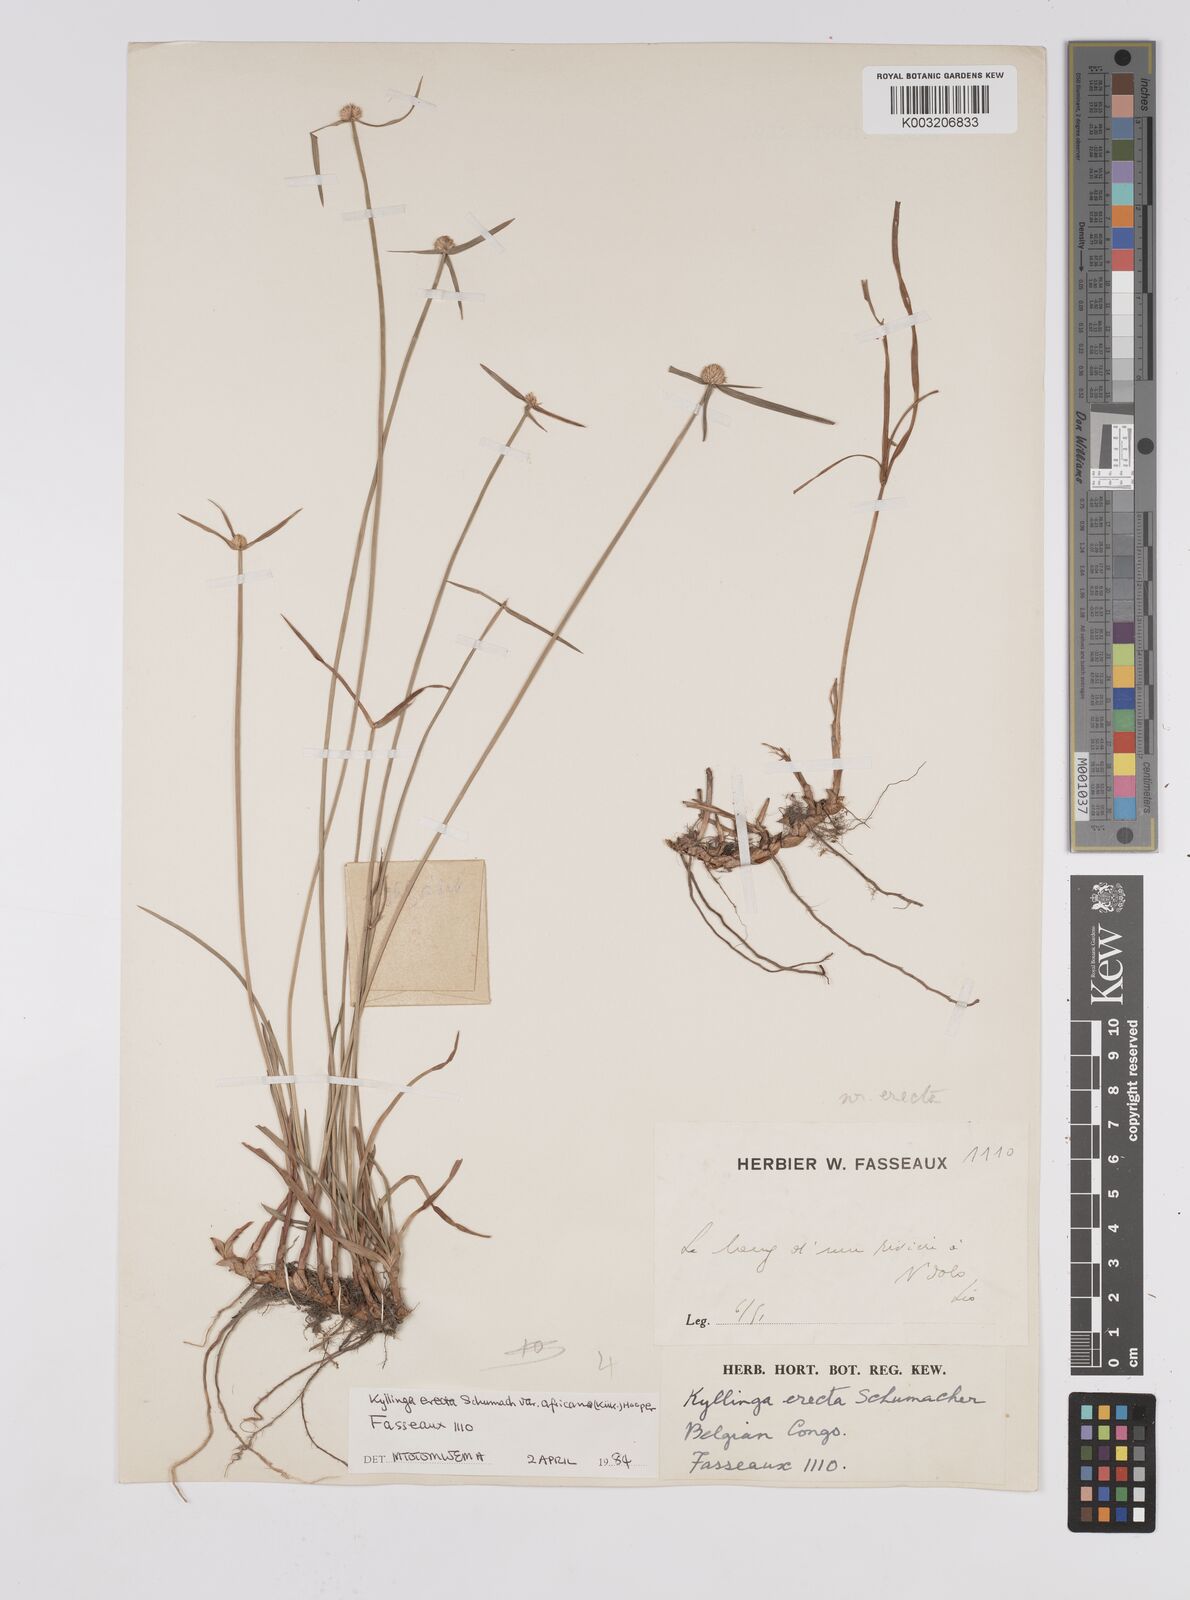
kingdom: Plantae
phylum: Tracheophyta
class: Liliopsida
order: Poales
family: Cyperaceae
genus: Cyperus
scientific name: Cyperus erectus
